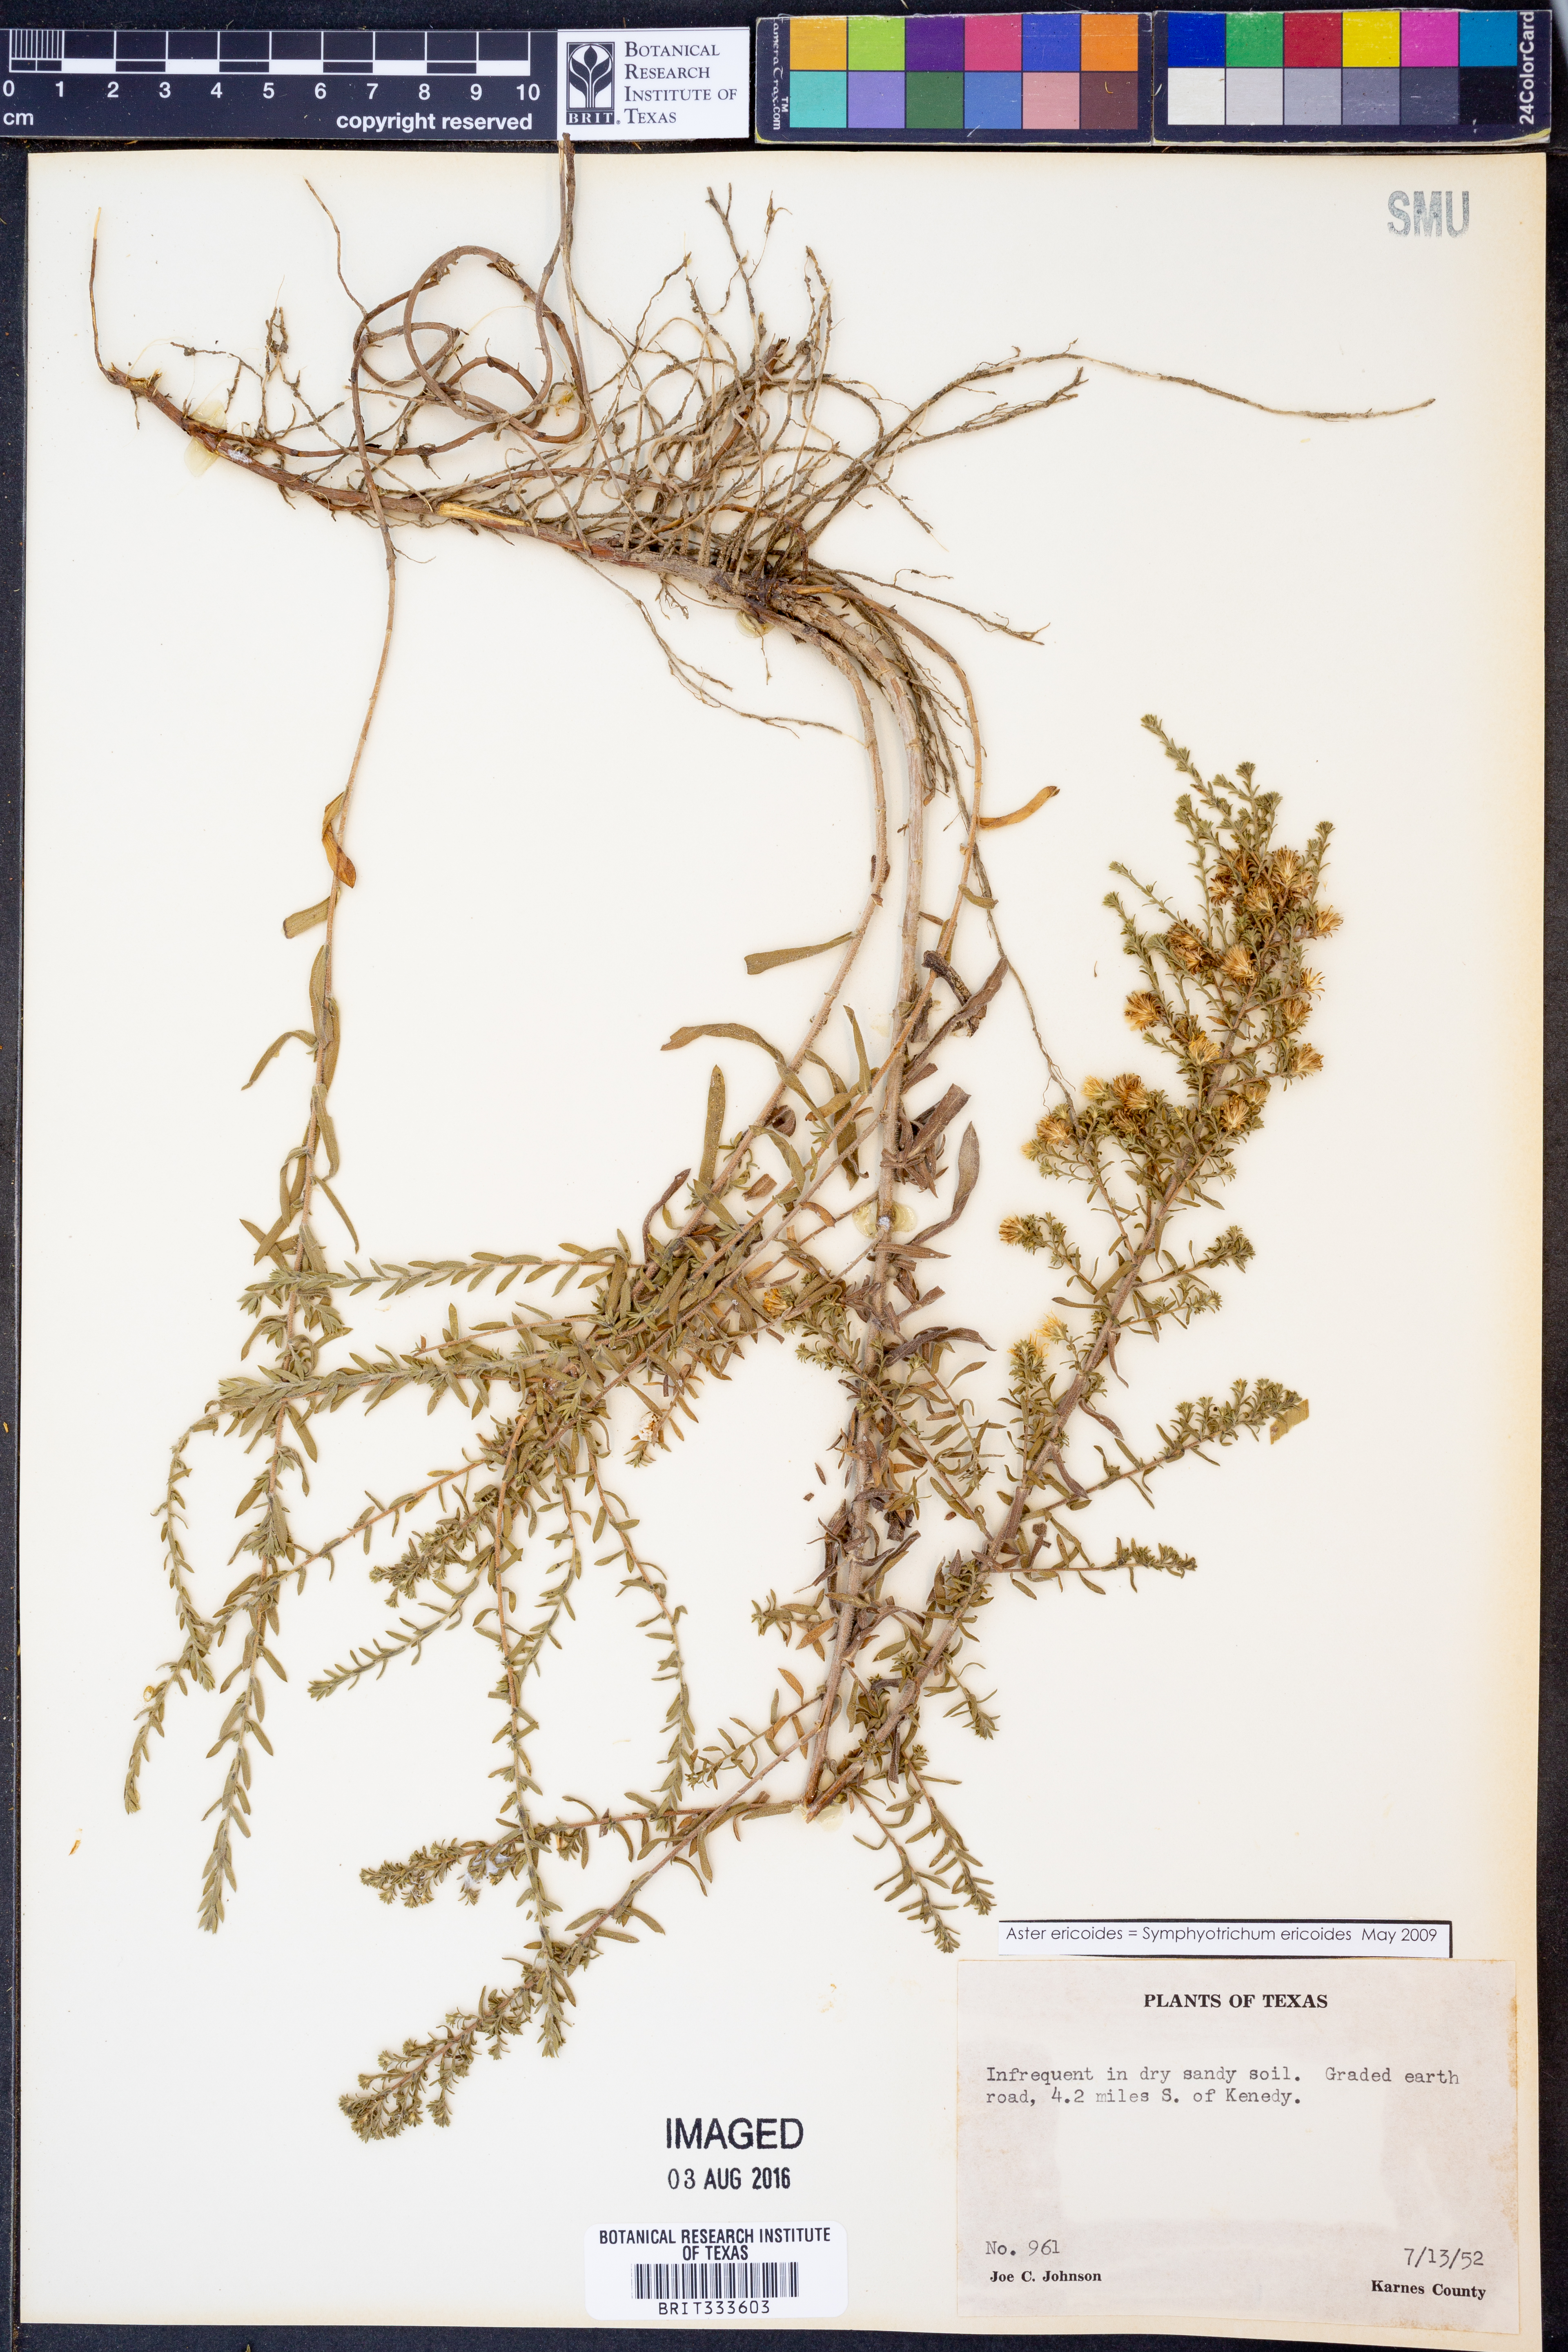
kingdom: Plantae
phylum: Tracheophyta
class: Magnoliopsida
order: Asterales
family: Asteraceae
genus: Symphyotrichum
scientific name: Symphyotrichum ericoides
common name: Heath aster
